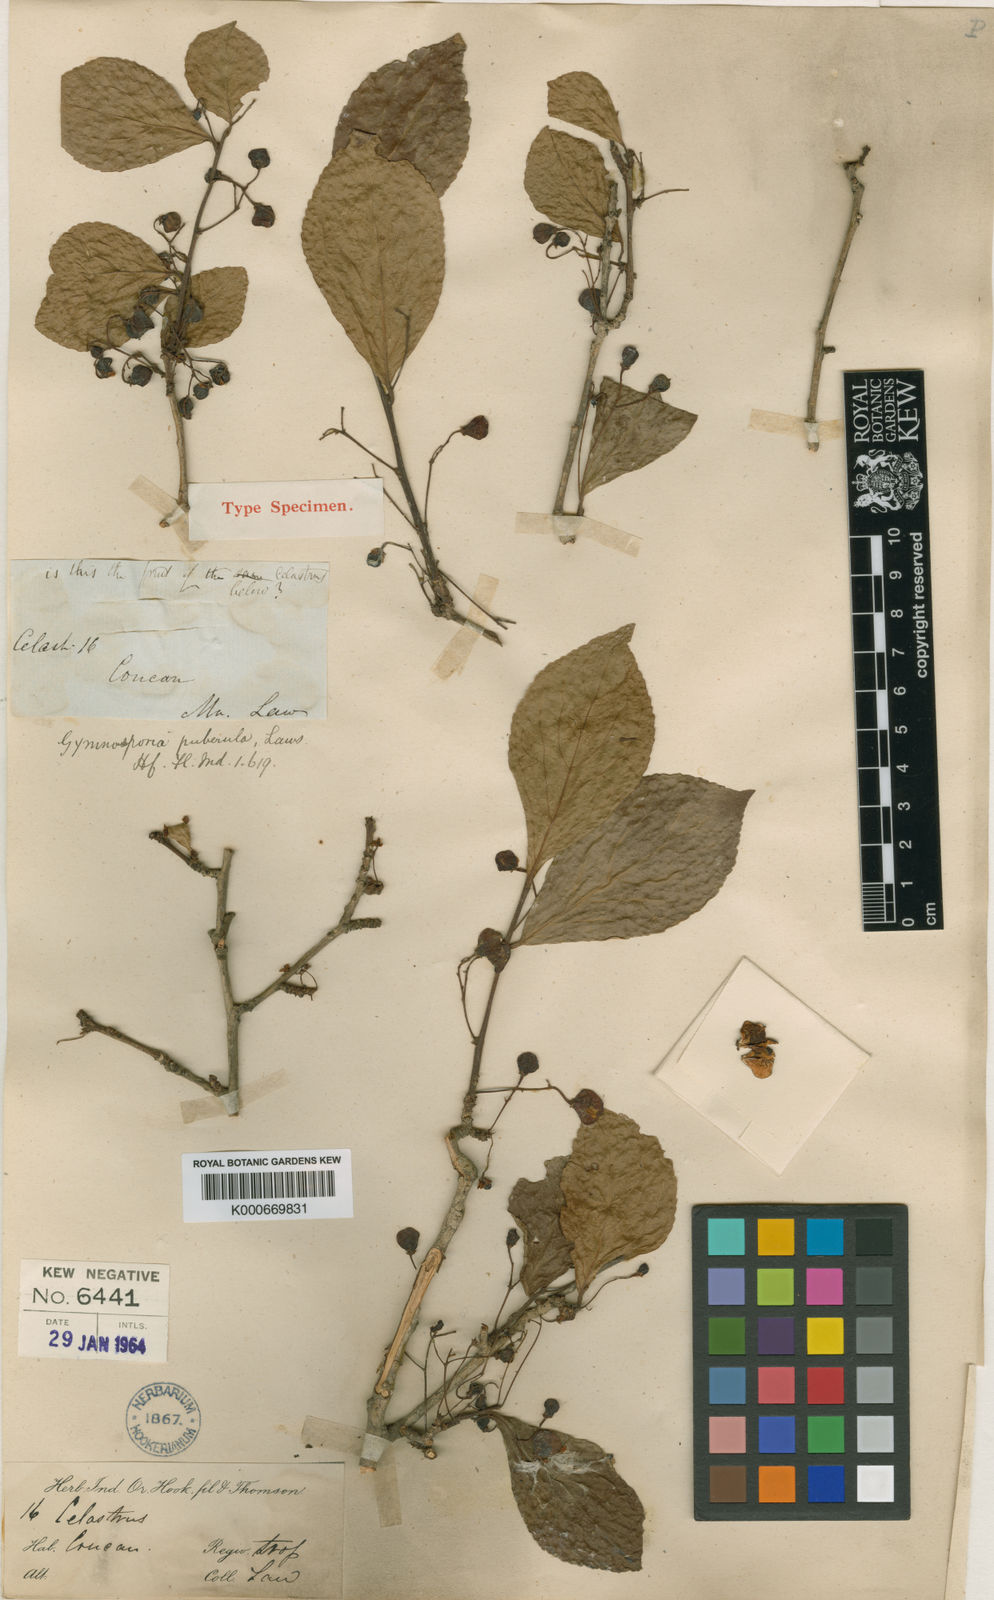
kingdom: Plantae
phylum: Tracheophyta
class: Magnoliopsida
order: Celastrales
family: Celastraceae
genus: Gymnosporia
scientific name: Gymnosporia puberula
